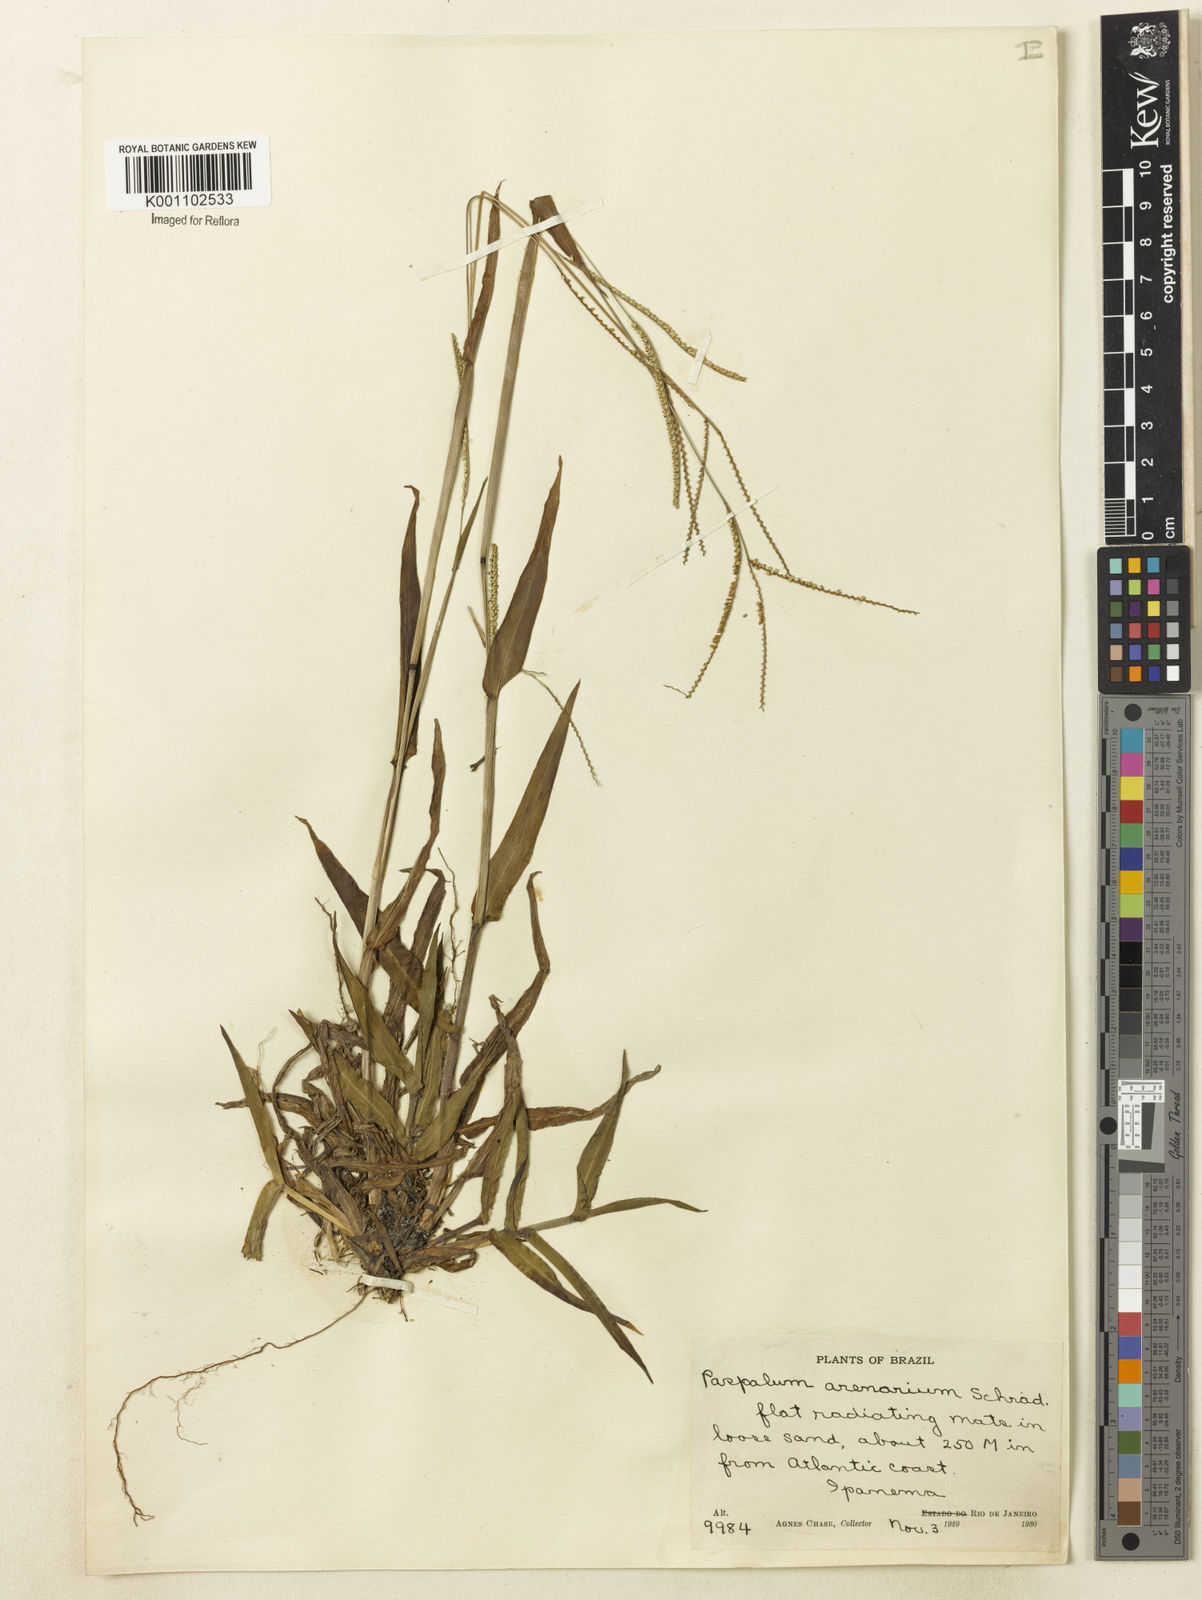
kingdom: Plantae
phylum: Tracheophyta
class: Liliopsida
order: Poales
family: Poaceae
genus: Paspalum
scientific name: Paspalum arenarium
